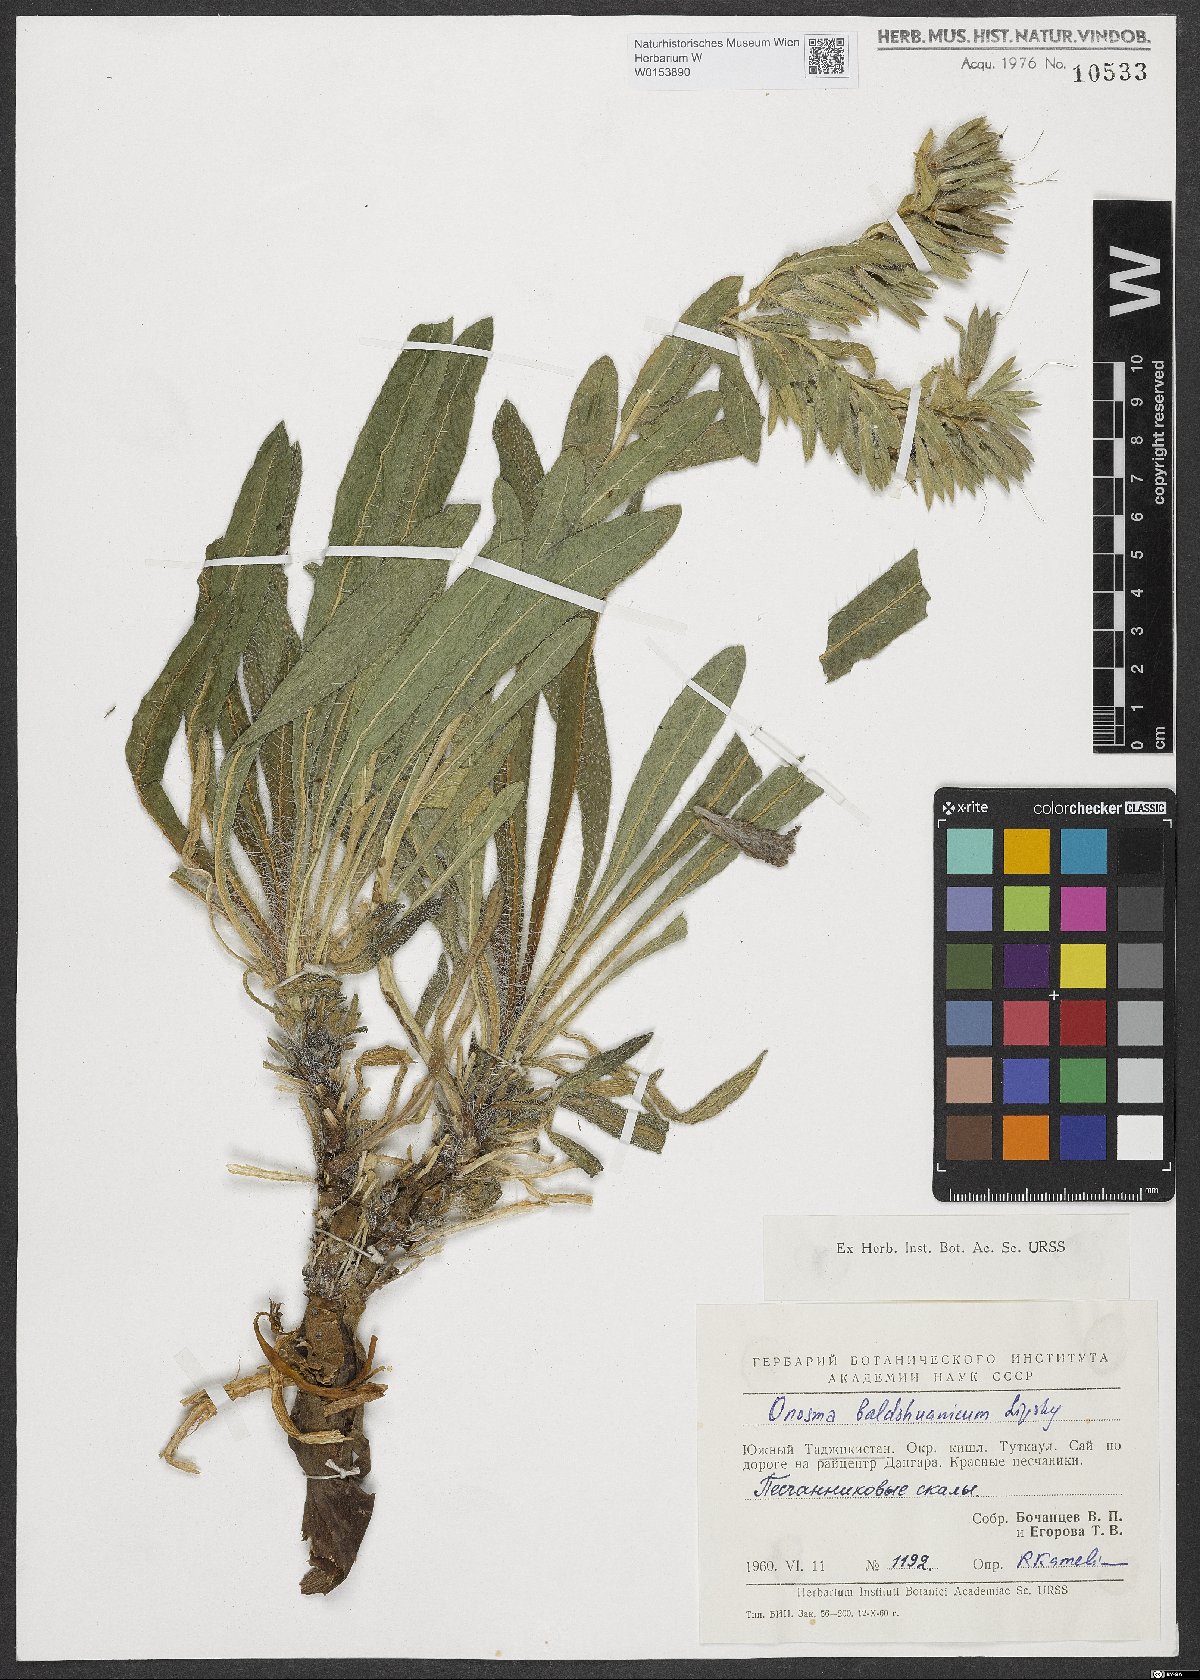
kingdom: Plantae
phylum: Tracheophyta
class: Magnoliopsida
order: Boraginales
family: Boraginaceae
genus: Onosma
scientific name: Onosma
